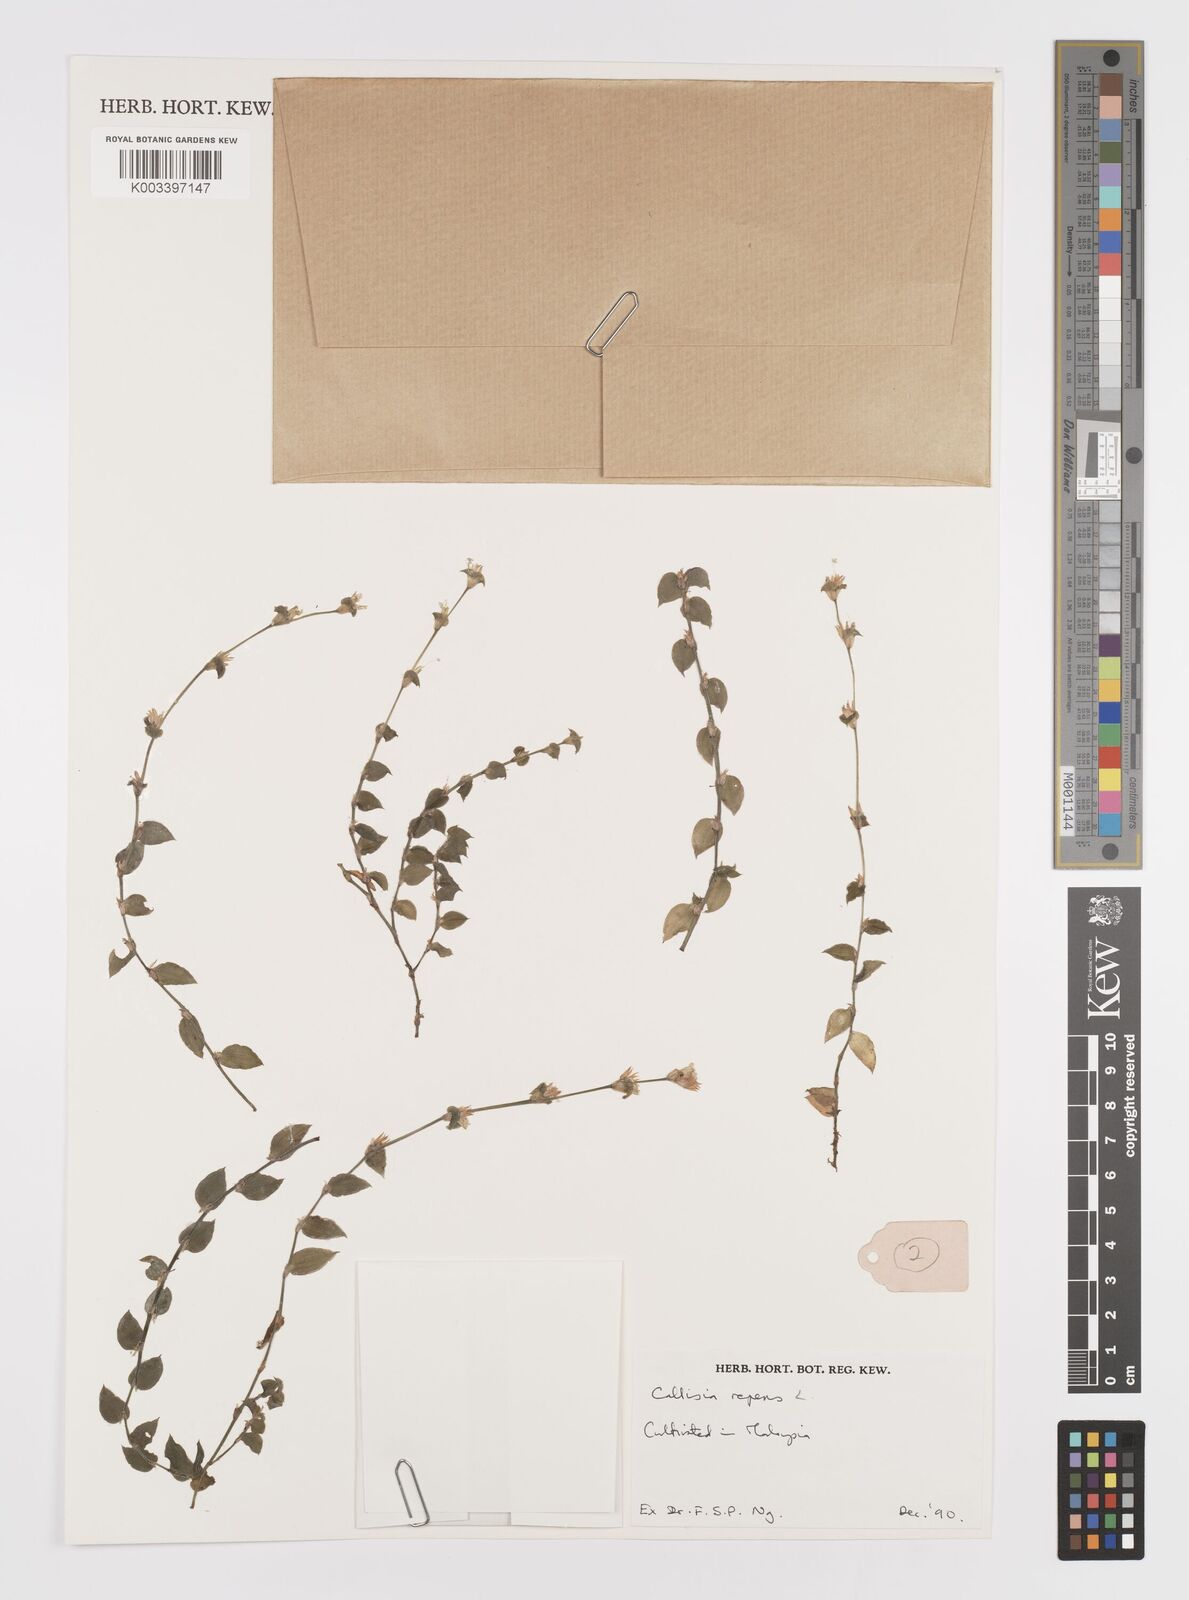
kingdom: Plantae
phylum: Tracheophyta
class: Liliopsida
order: Commelinales
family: Commelinaceae
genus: Callisia
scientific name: Callisia repens
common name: Creeping inchplant
